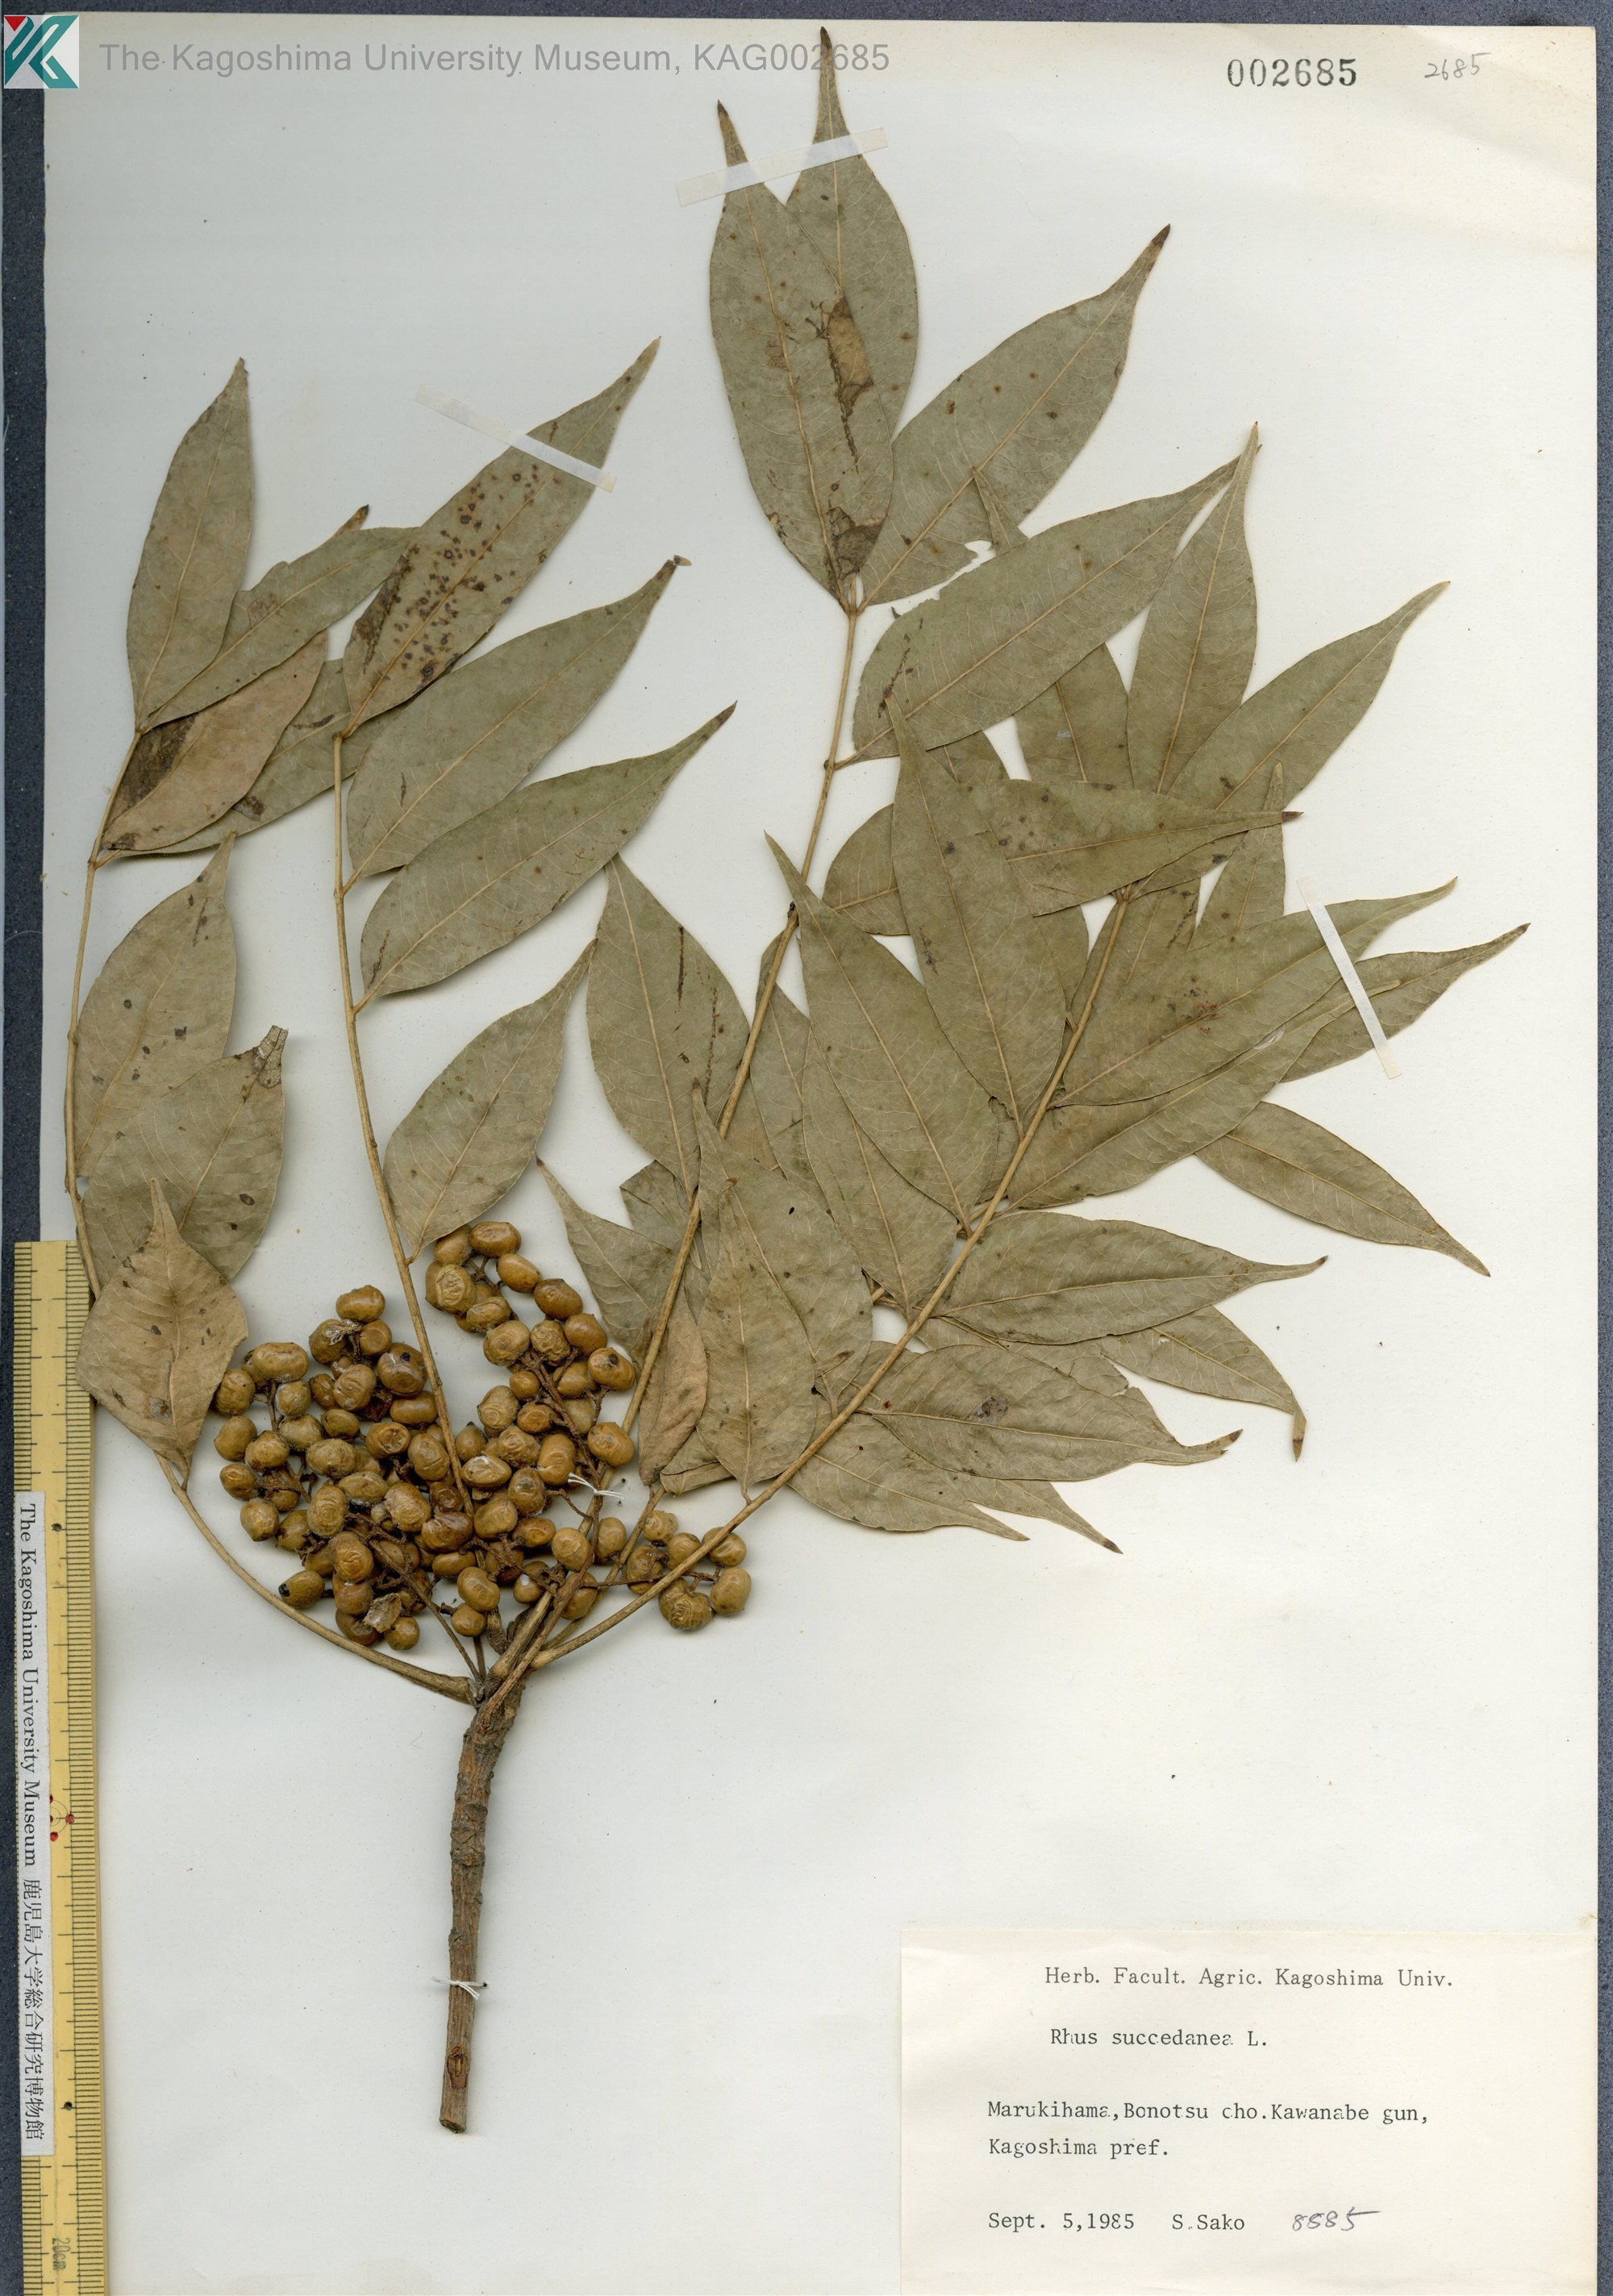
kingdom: Plantae
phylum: Tracheophyta
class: Magnoliopsida
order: Sapindales
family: Anacardiaceae
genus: Toxicodendron
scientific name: Toxicodendron succedaneum
